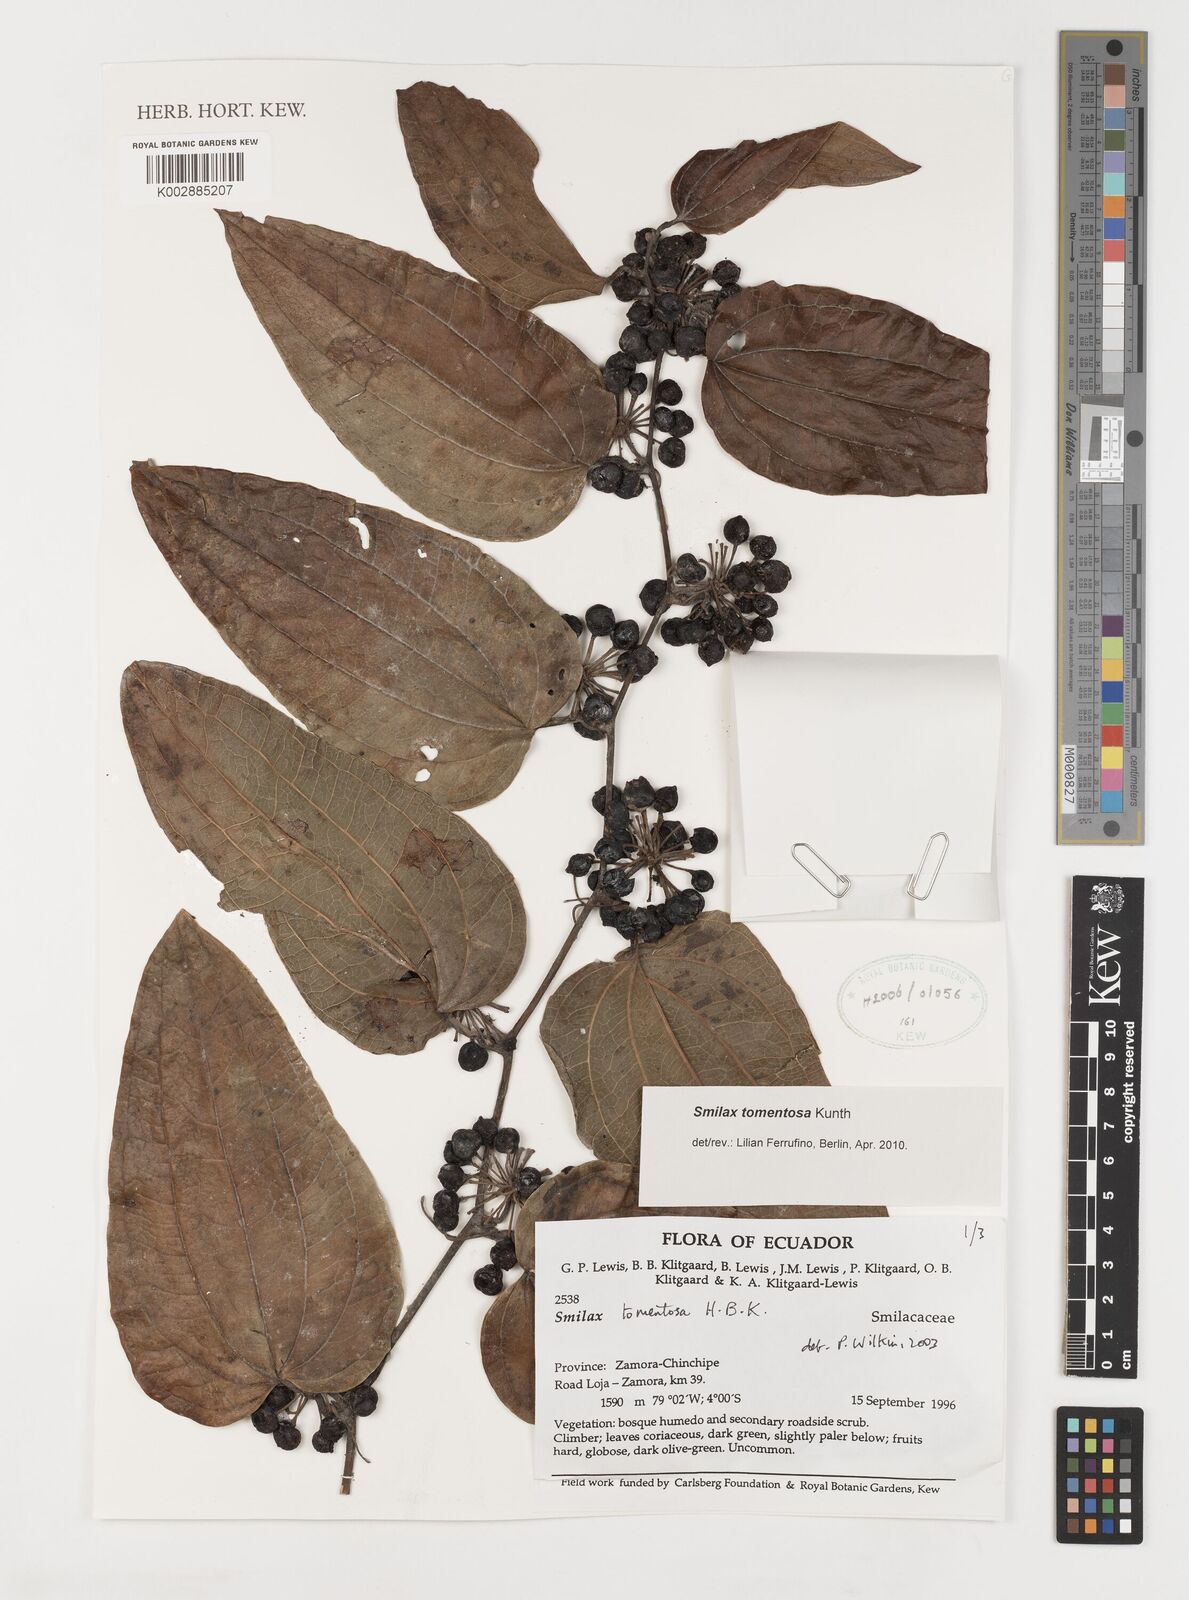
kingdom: Plantae
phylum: Tracheophyta
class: Liliopsida
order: Liliales
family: Smilacaceae
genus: Smilax
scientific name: Smilax tomentosa
